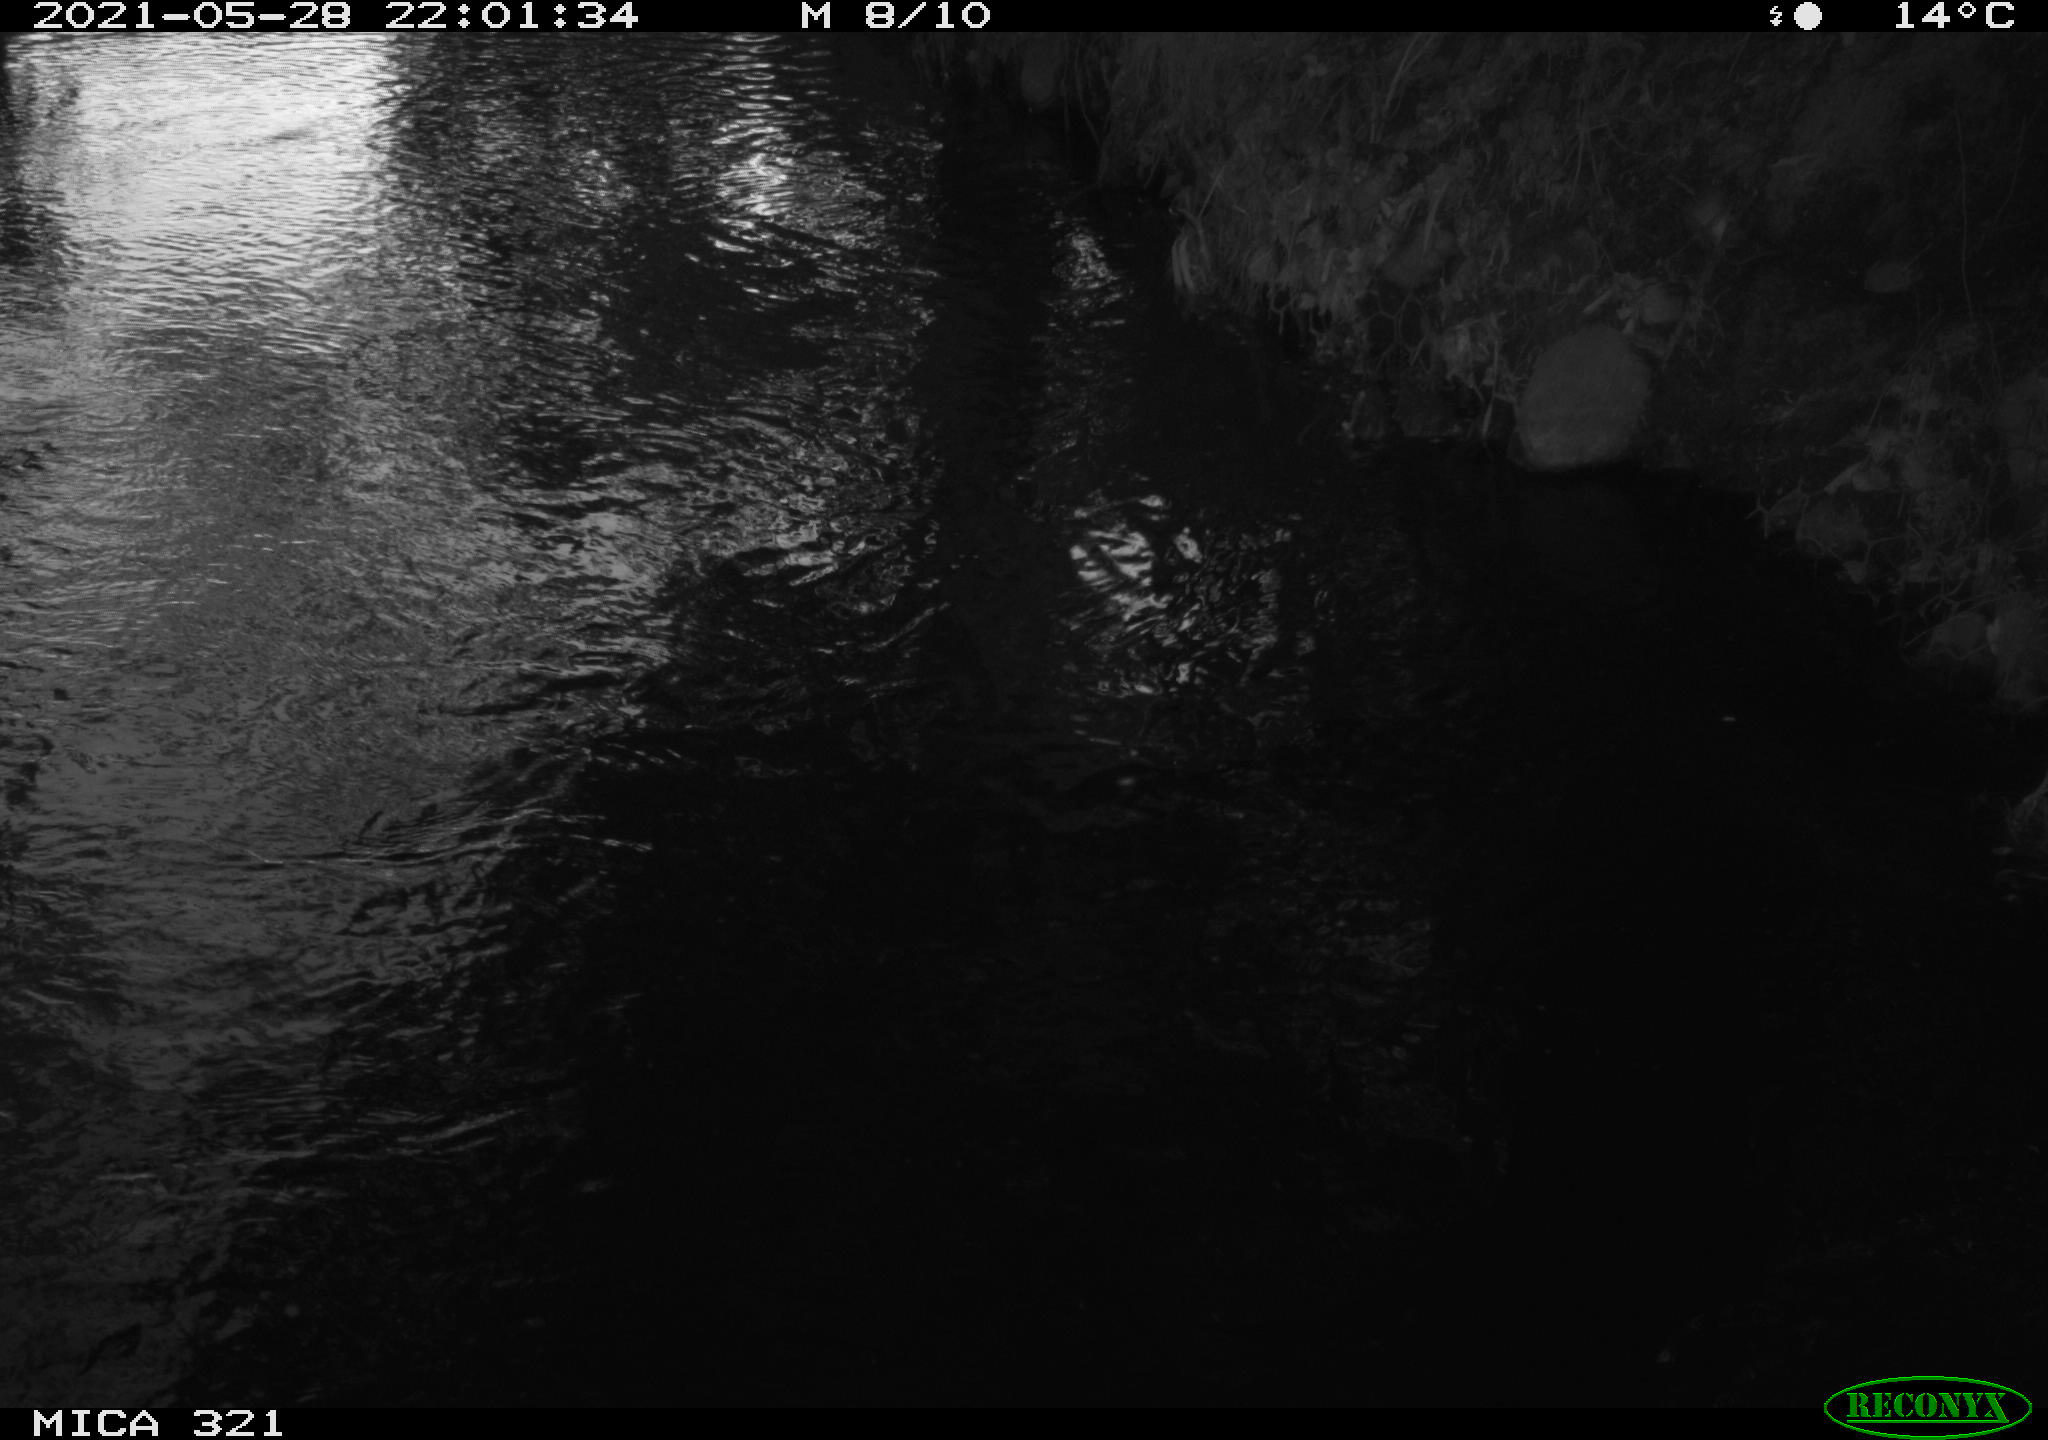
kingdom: Animalia
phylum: Chordata
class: Aves
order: Anseriformes
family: Anatidae
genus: Anas
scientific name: Anas platyrhynchos
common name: Mallard
